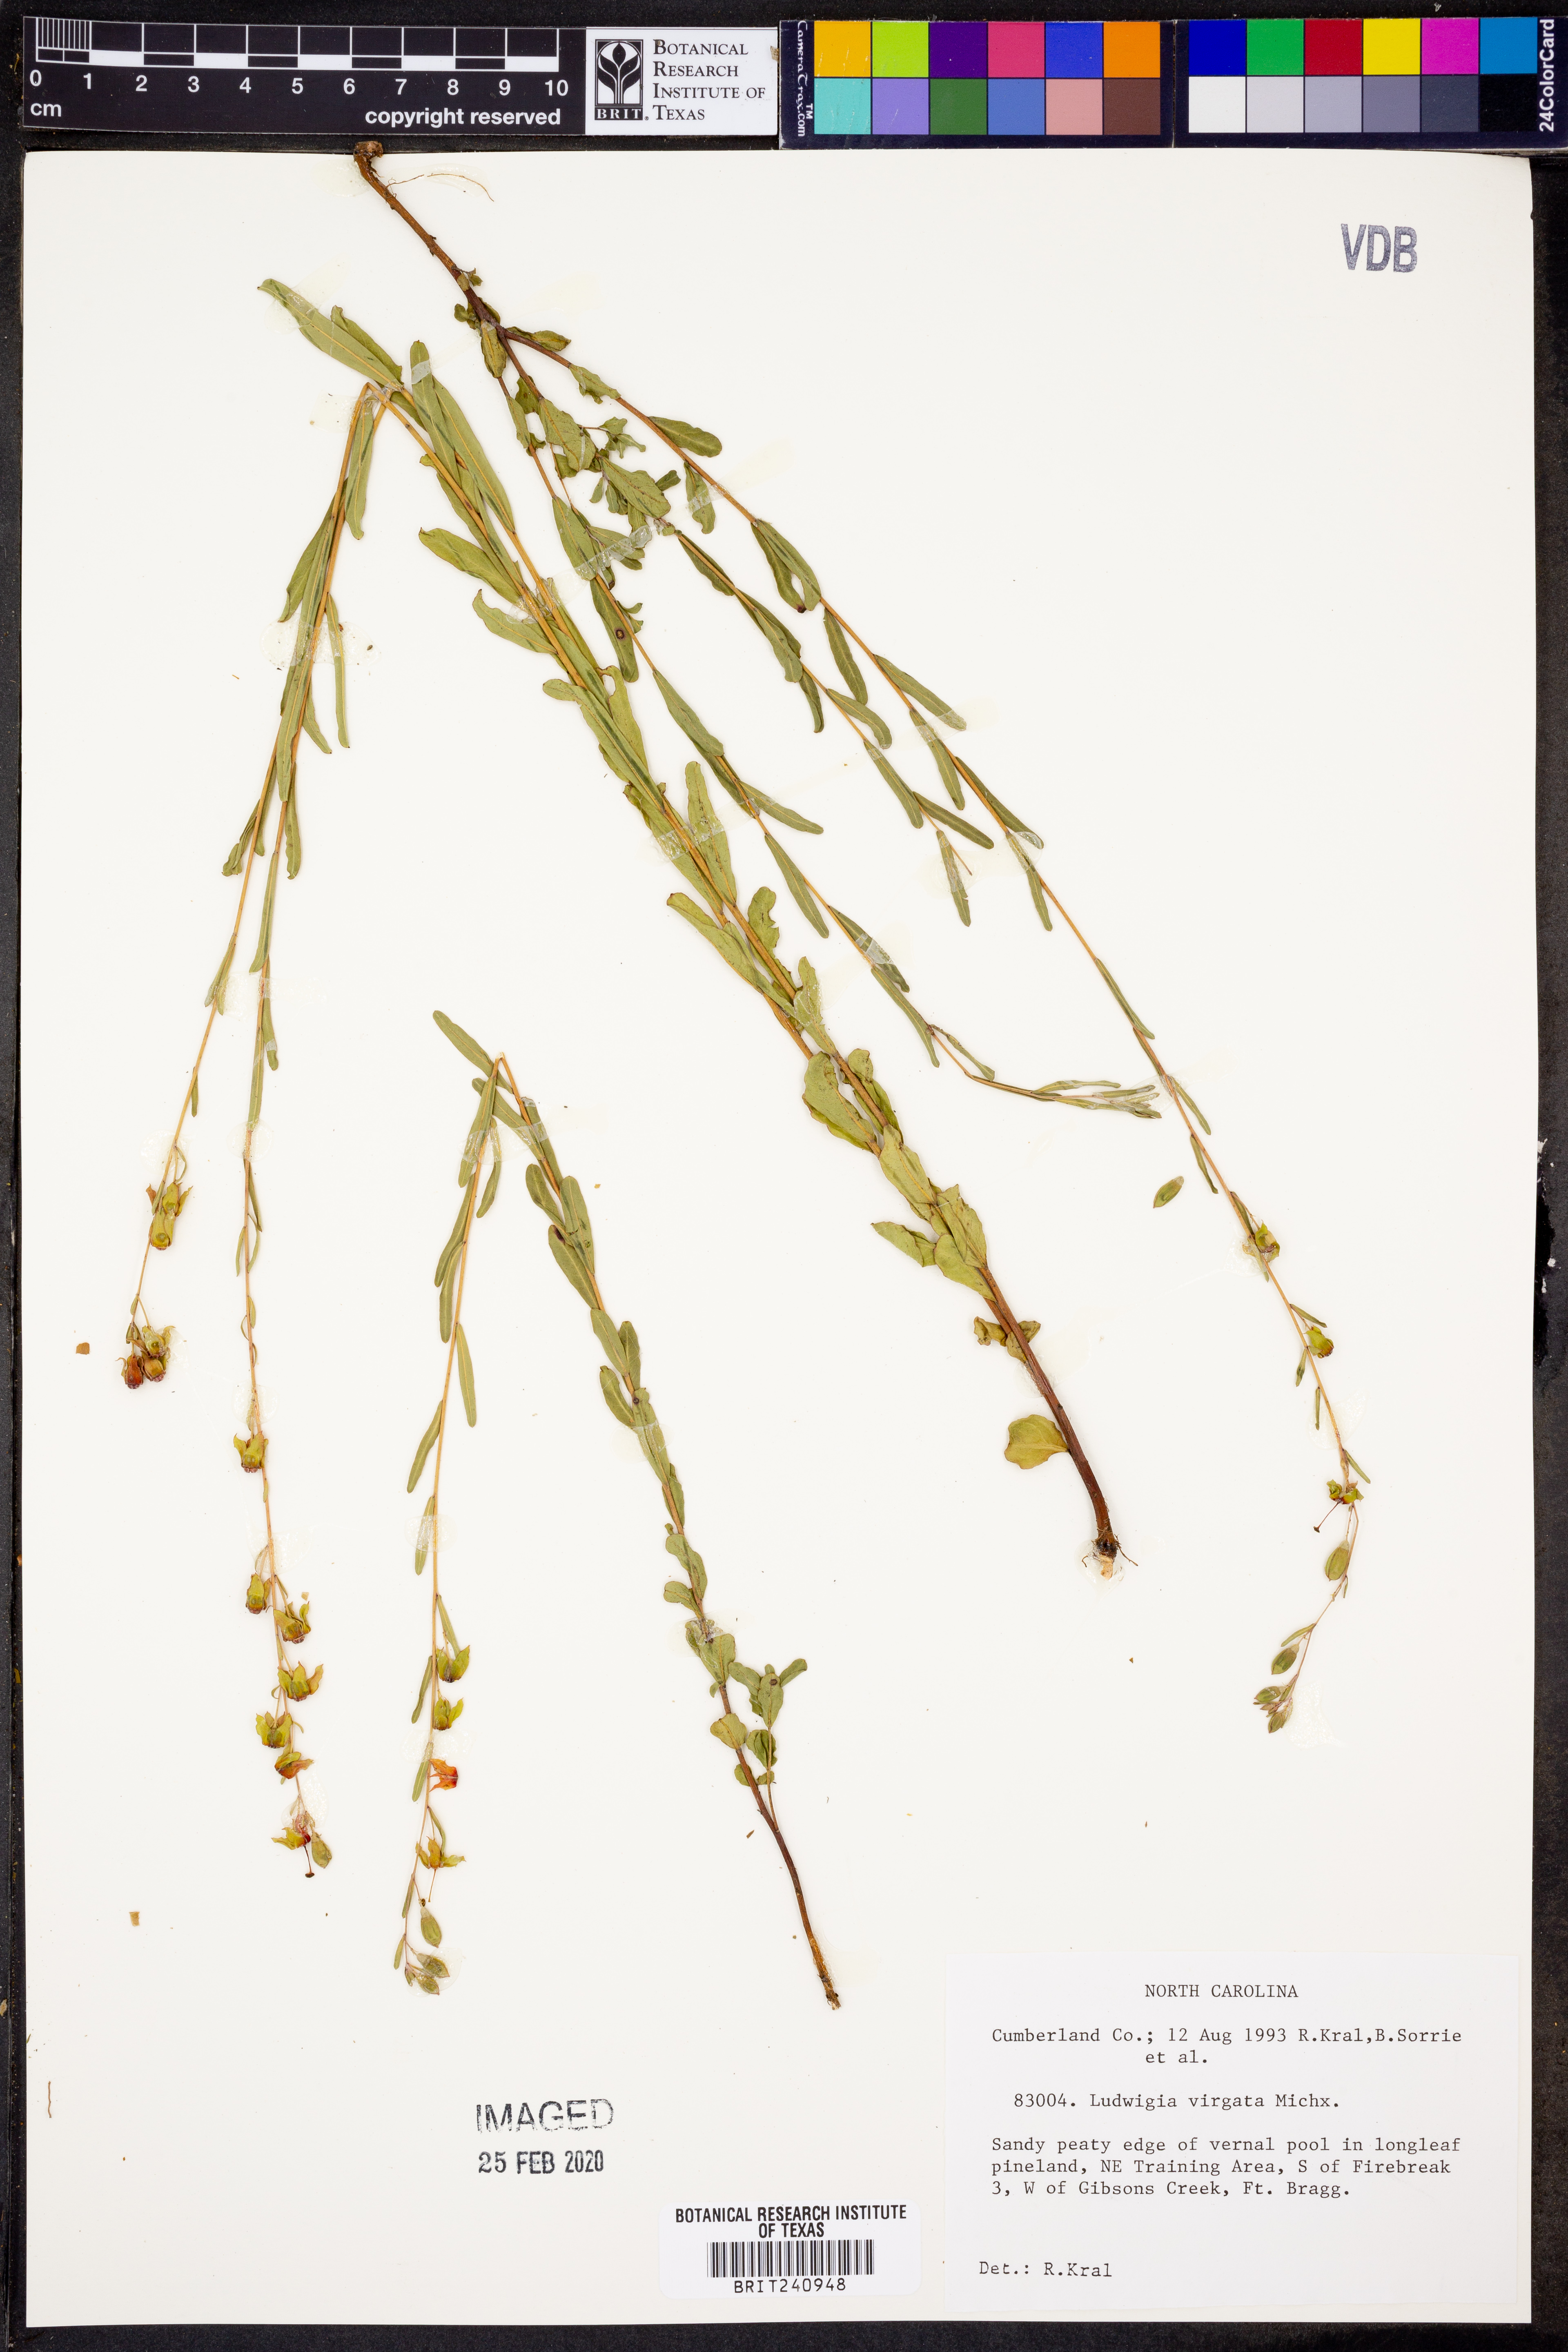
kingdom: Plantae
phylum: Tracheophyta
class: Magnoliopsida
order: Myrtales
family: Onagraceae
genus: Ludwigia
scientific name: Ludwigia virgata
